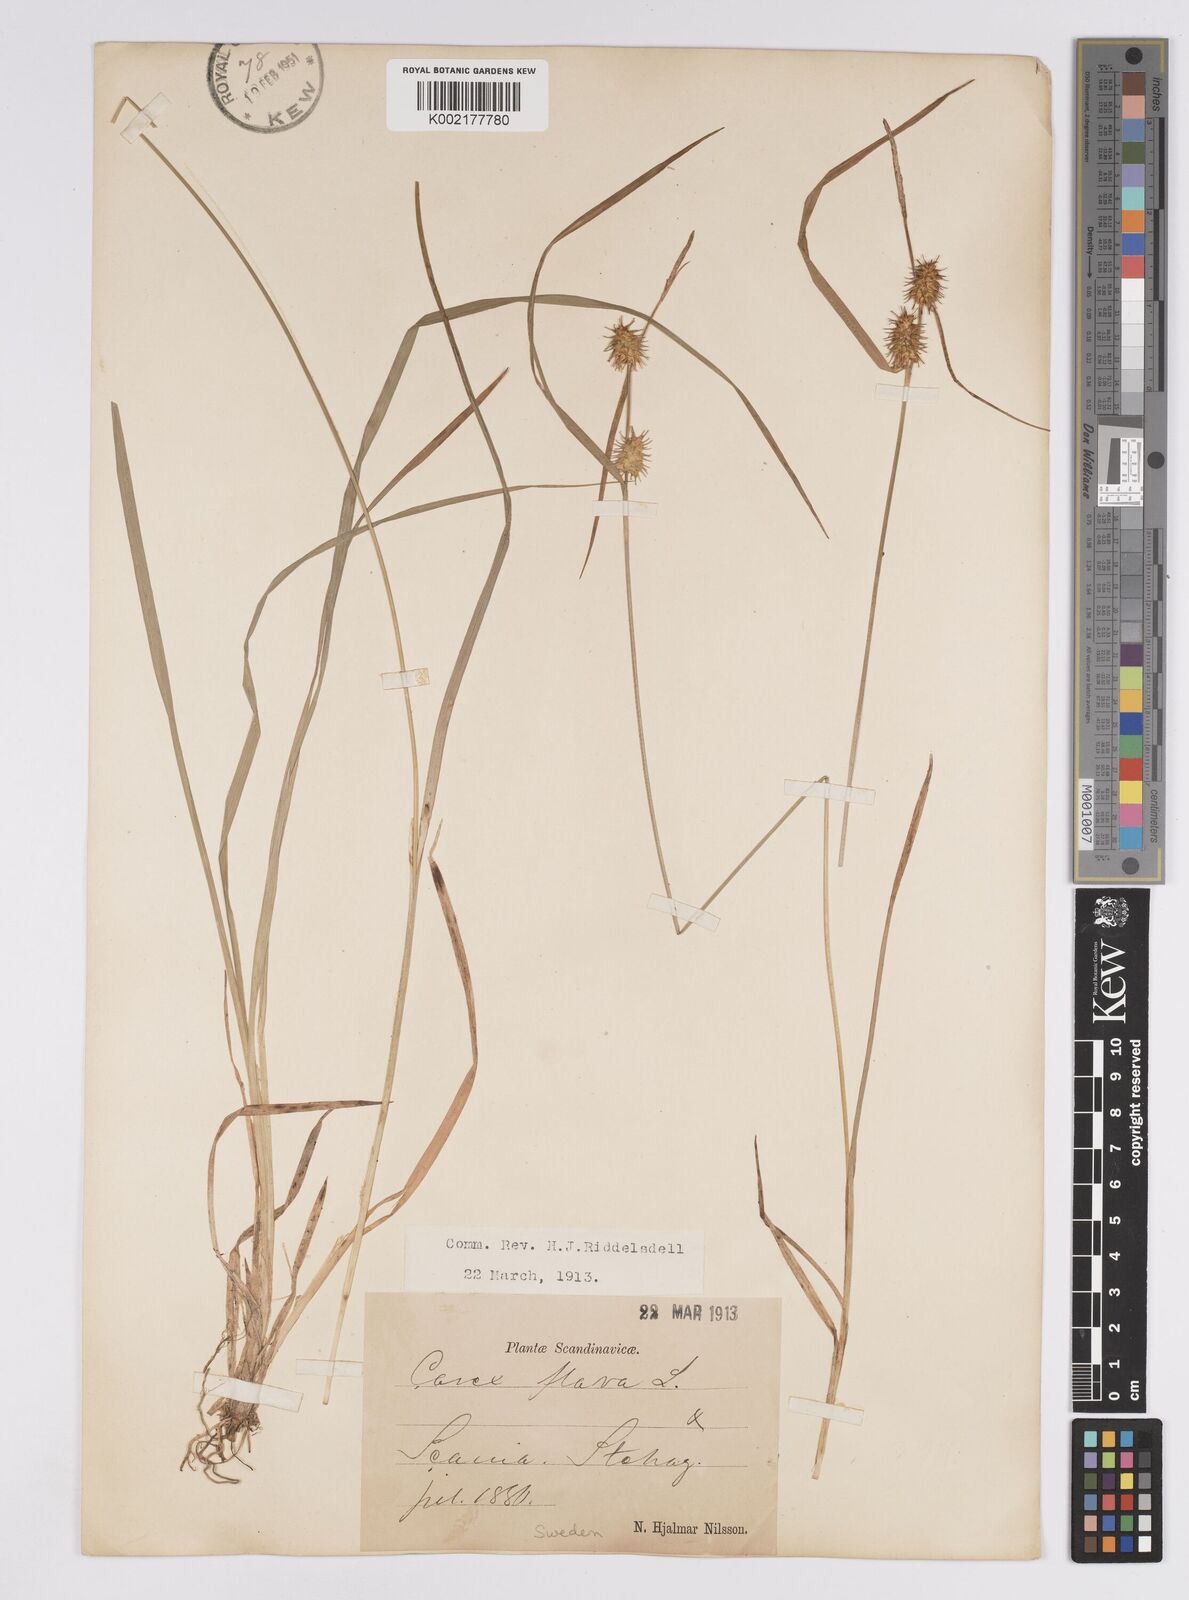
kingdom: Plantae
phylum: Tracheophyta
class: Liliopsida
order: Poales
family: Cyperaceae
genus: Carex
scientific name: Carex flava
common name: Large yellow-sedge
